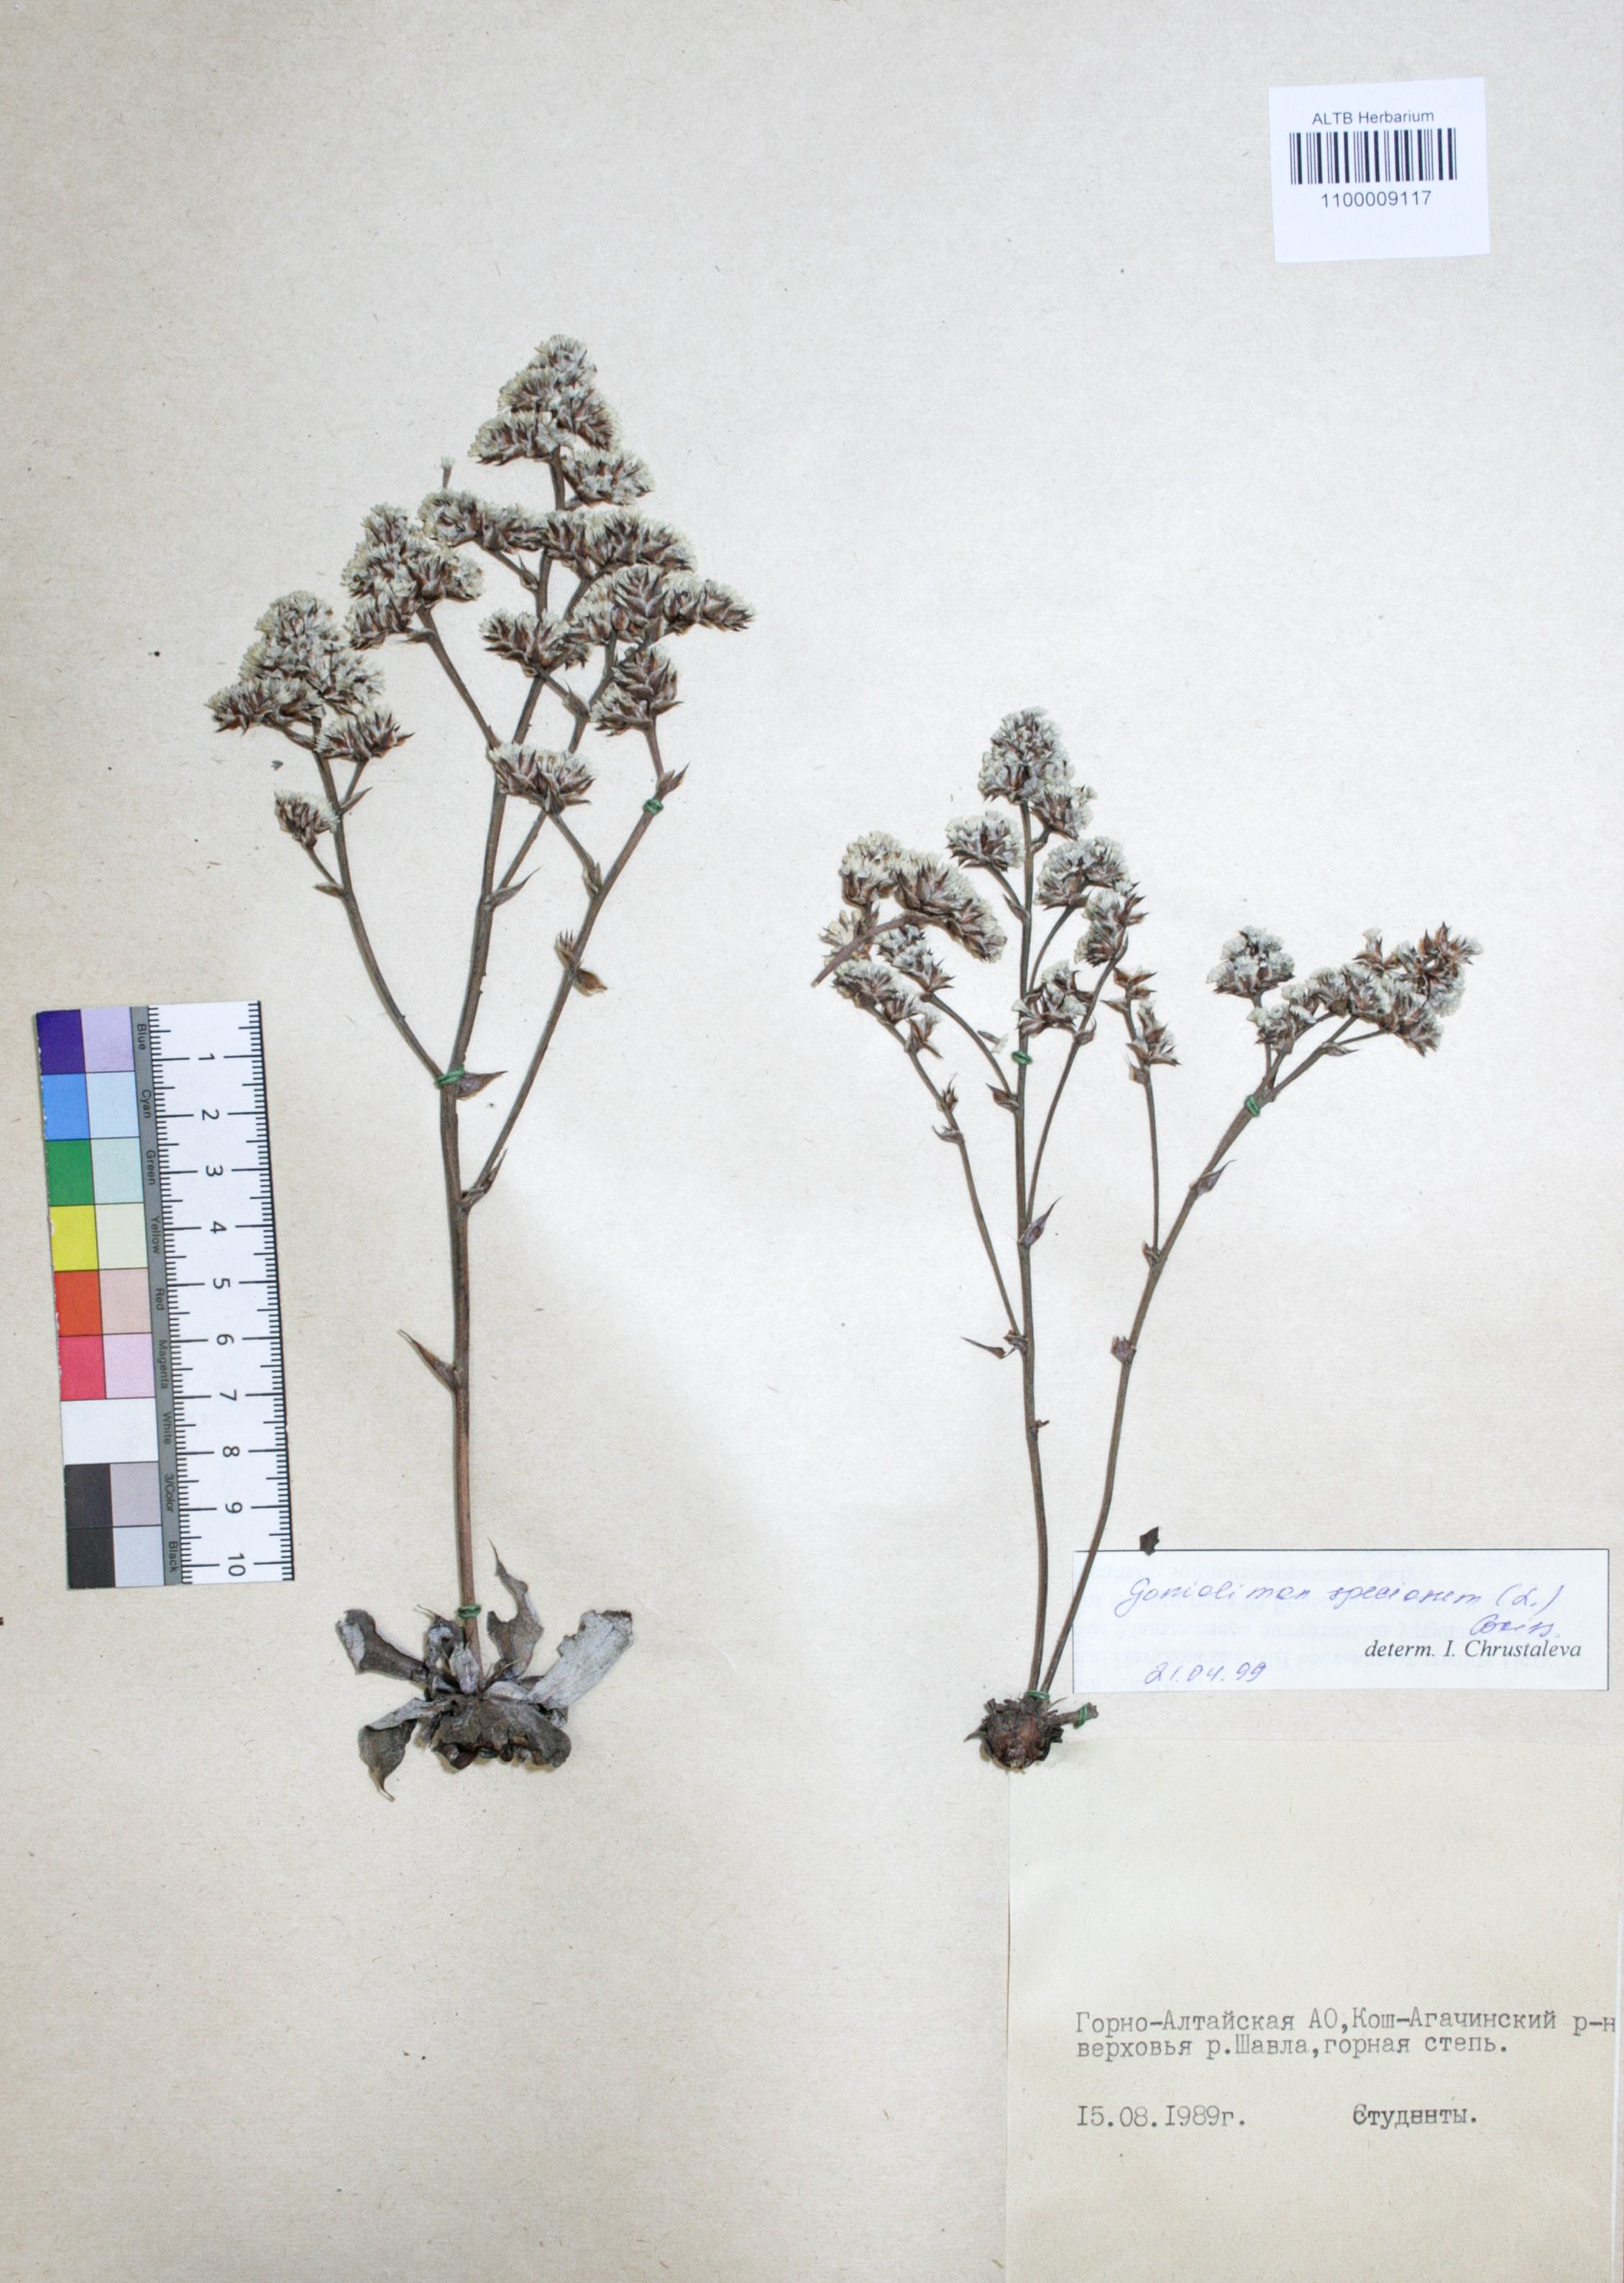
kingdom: Plantae
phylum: Tracheophyta
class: Magnoliopsida
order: Caryophyllales
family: Plumbaginaceae
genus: Goniolimon
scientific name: Goniolimon speciosum
